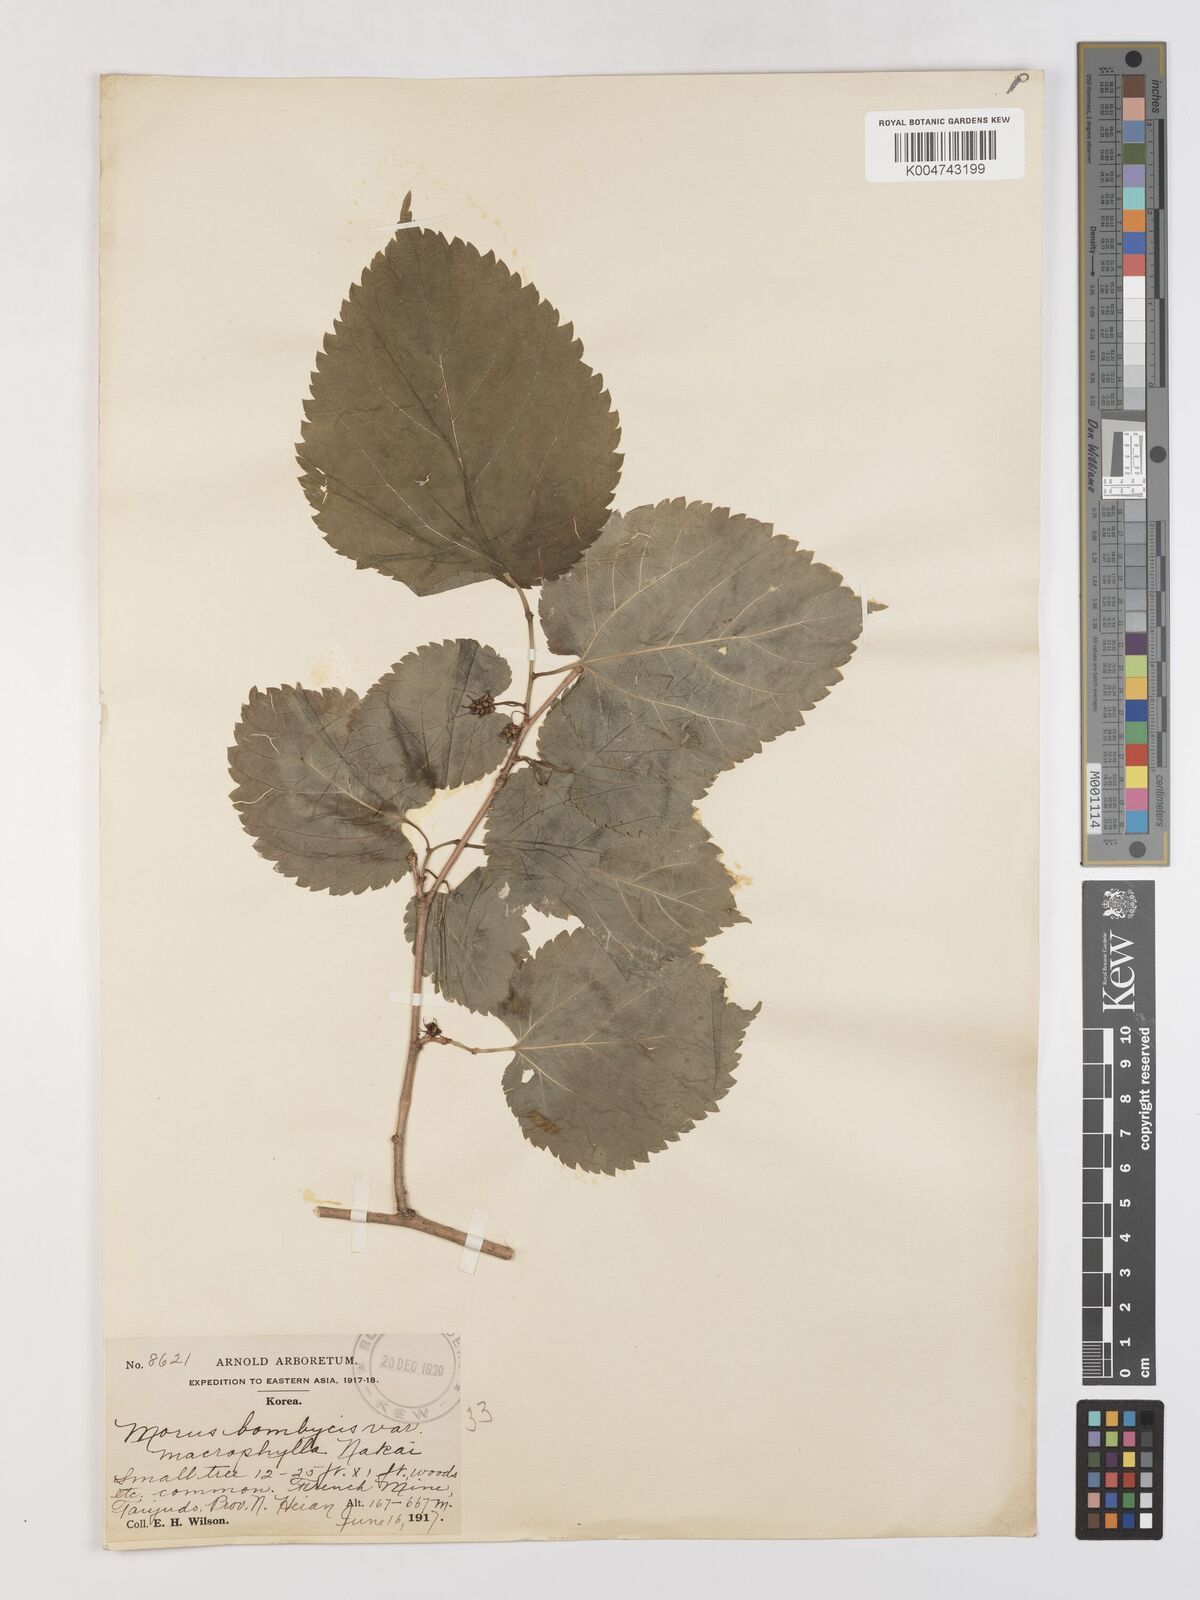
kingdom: Plantae
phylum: Tracheophyta
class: Magnoliopsida
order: Rosales
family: Moraceae
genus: Morus
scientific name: Morus indica
